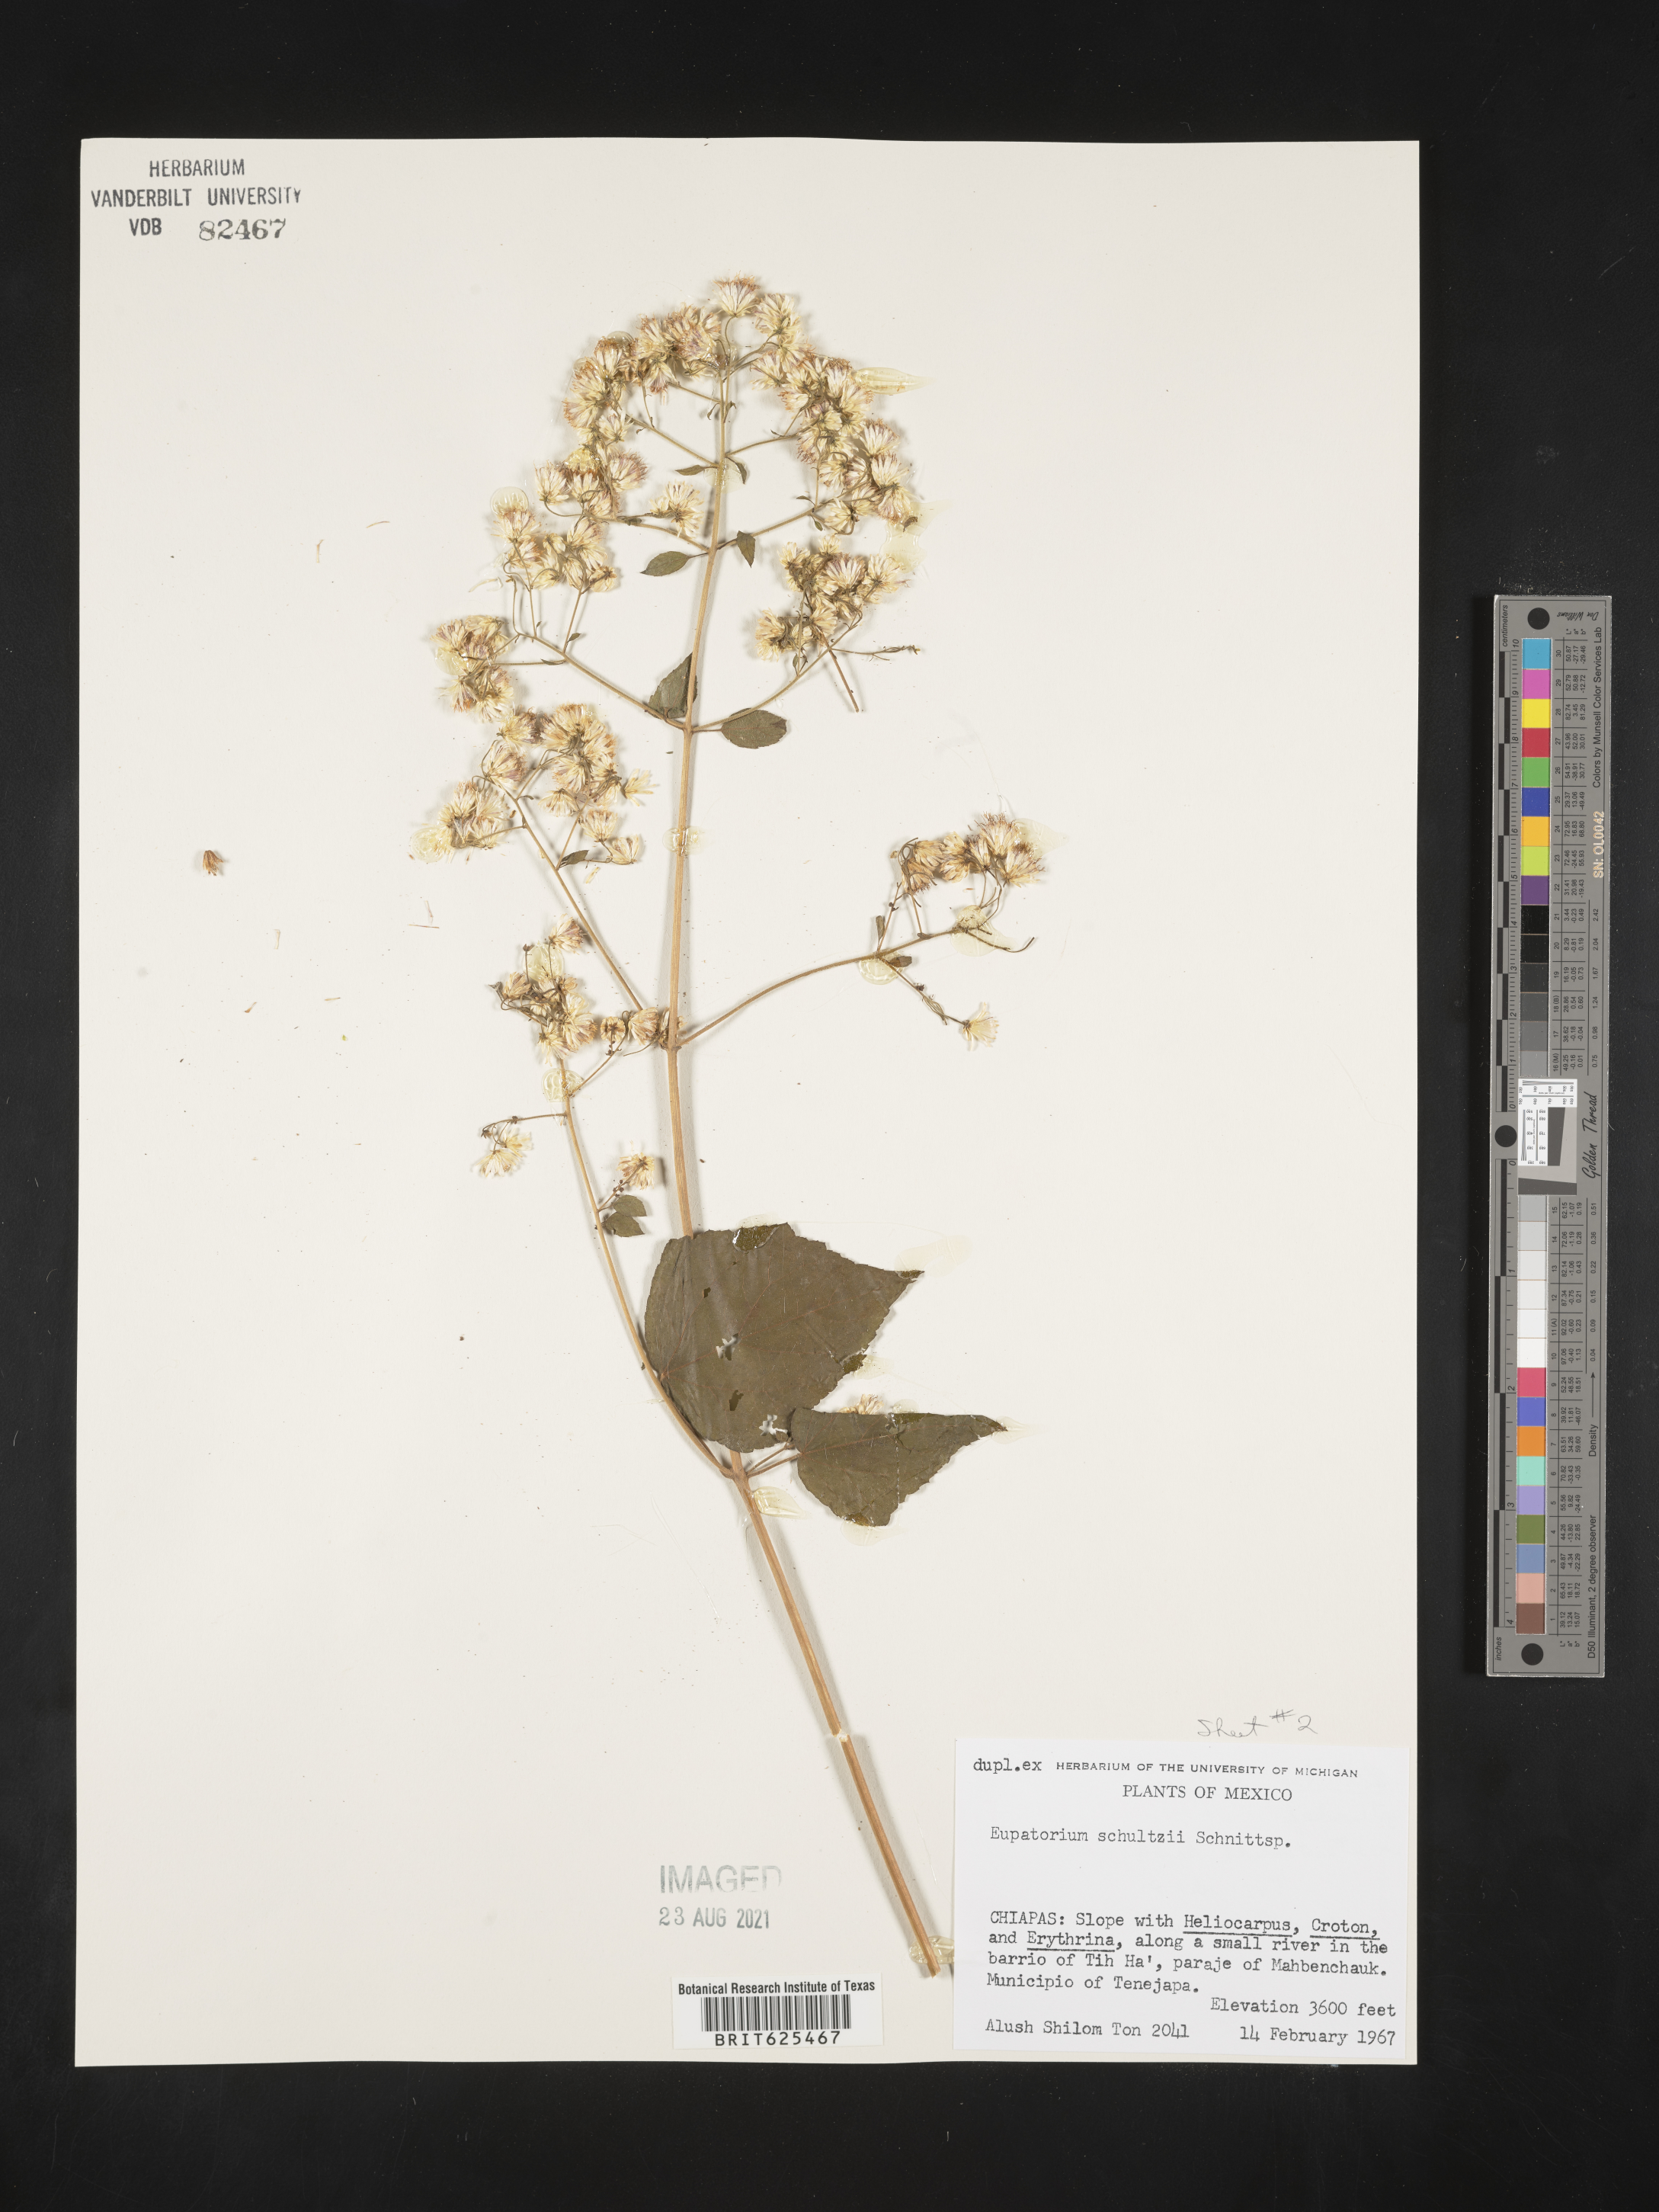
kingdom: Plantae
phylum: Tracheophyta
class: Magnoliopsida
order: Asterales
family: Asteraceae
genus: Eupatorium
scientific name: Eupatorium
